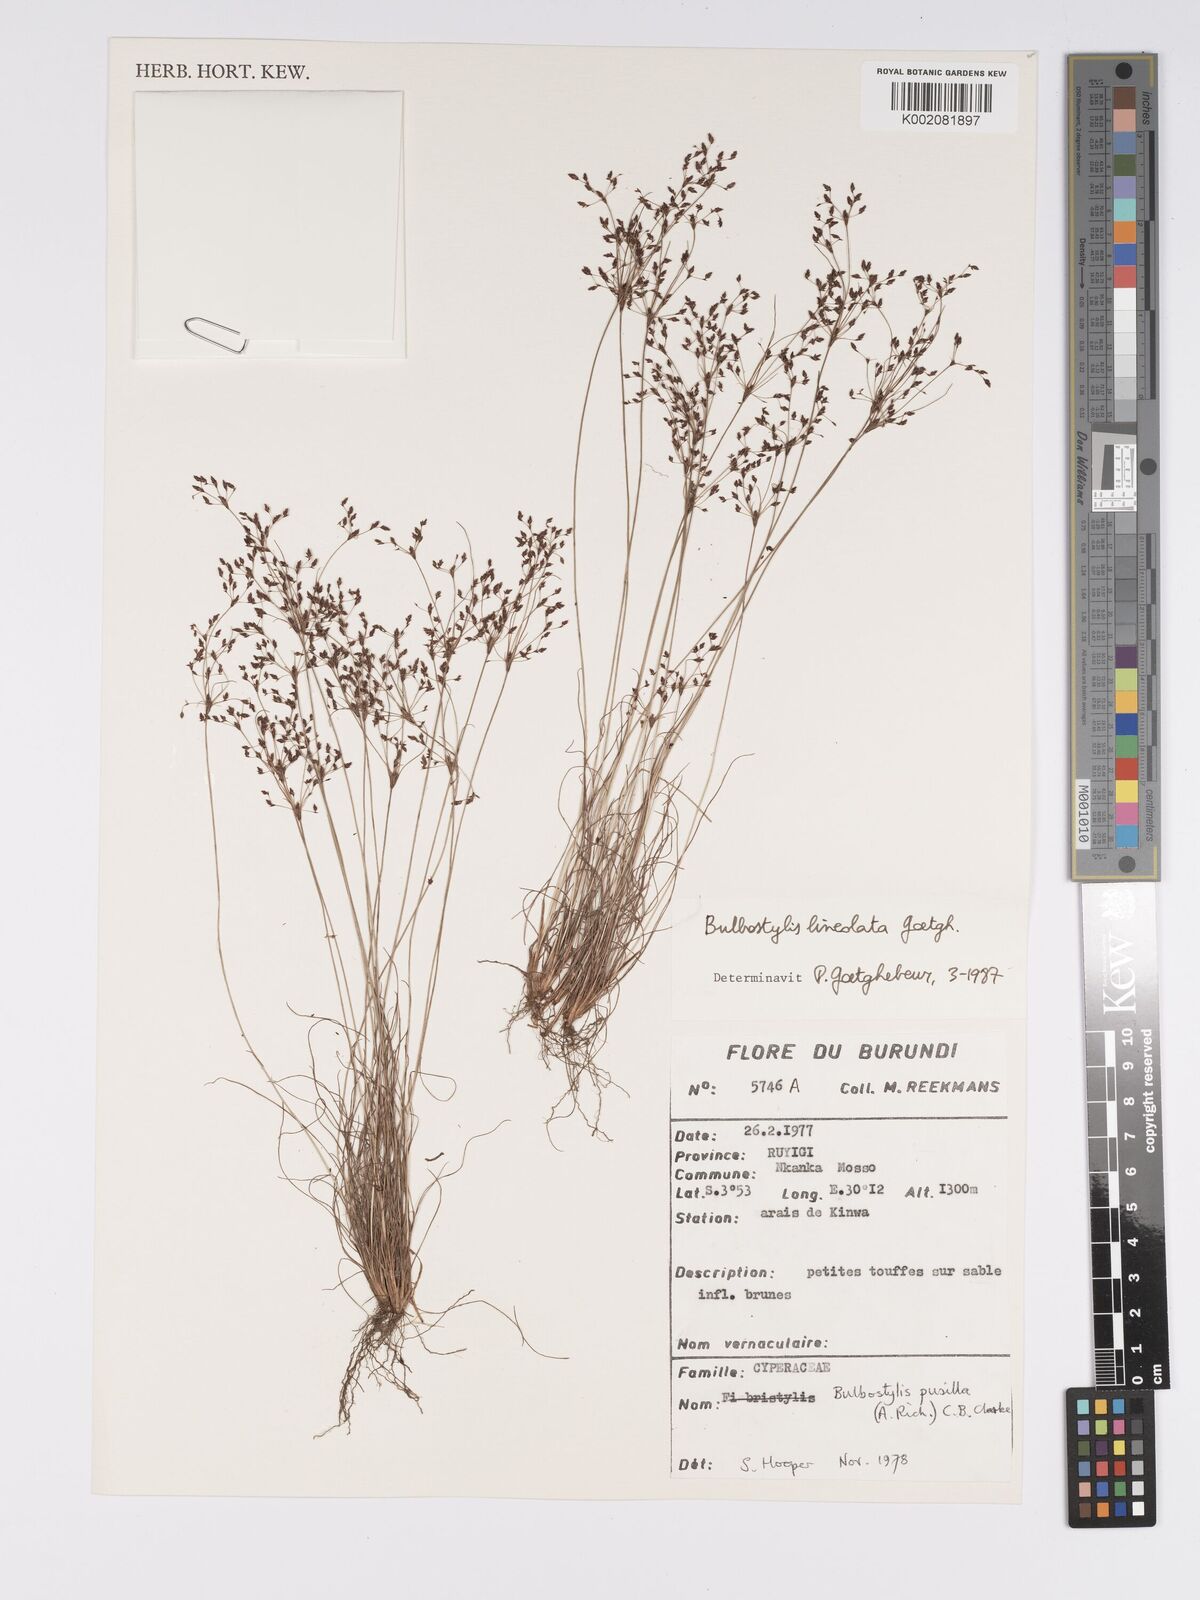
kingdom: Plantae
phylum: Tracheophyta
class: Liliopsida
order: Poales
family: Cyperaceae
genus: Bulbostylis
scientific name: Bulbostylis scrobiculata
